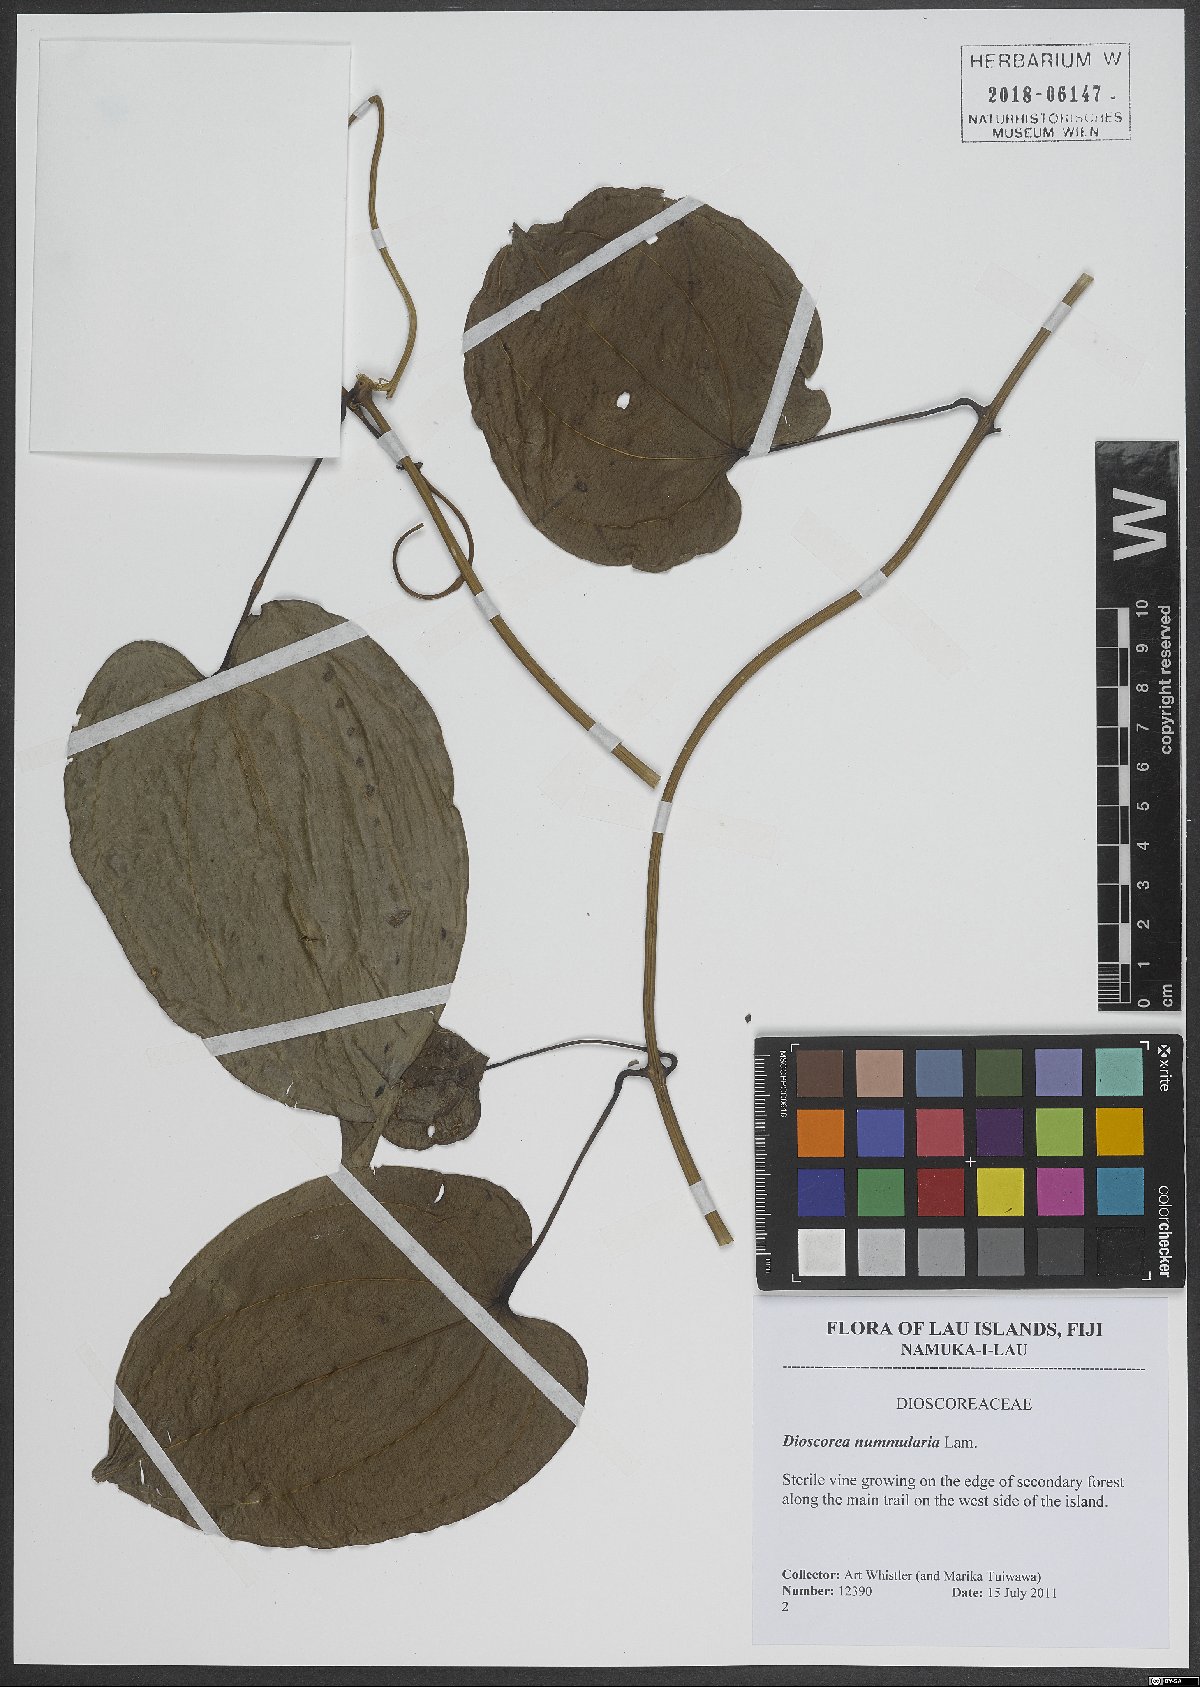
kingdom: Plantae
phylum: Tracheophyta
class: Liliopsida
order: Dioscoreales
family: Dioscoreaceae
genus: Dioscorea
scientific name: Dioscorea nummularia
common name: Pacific yam
